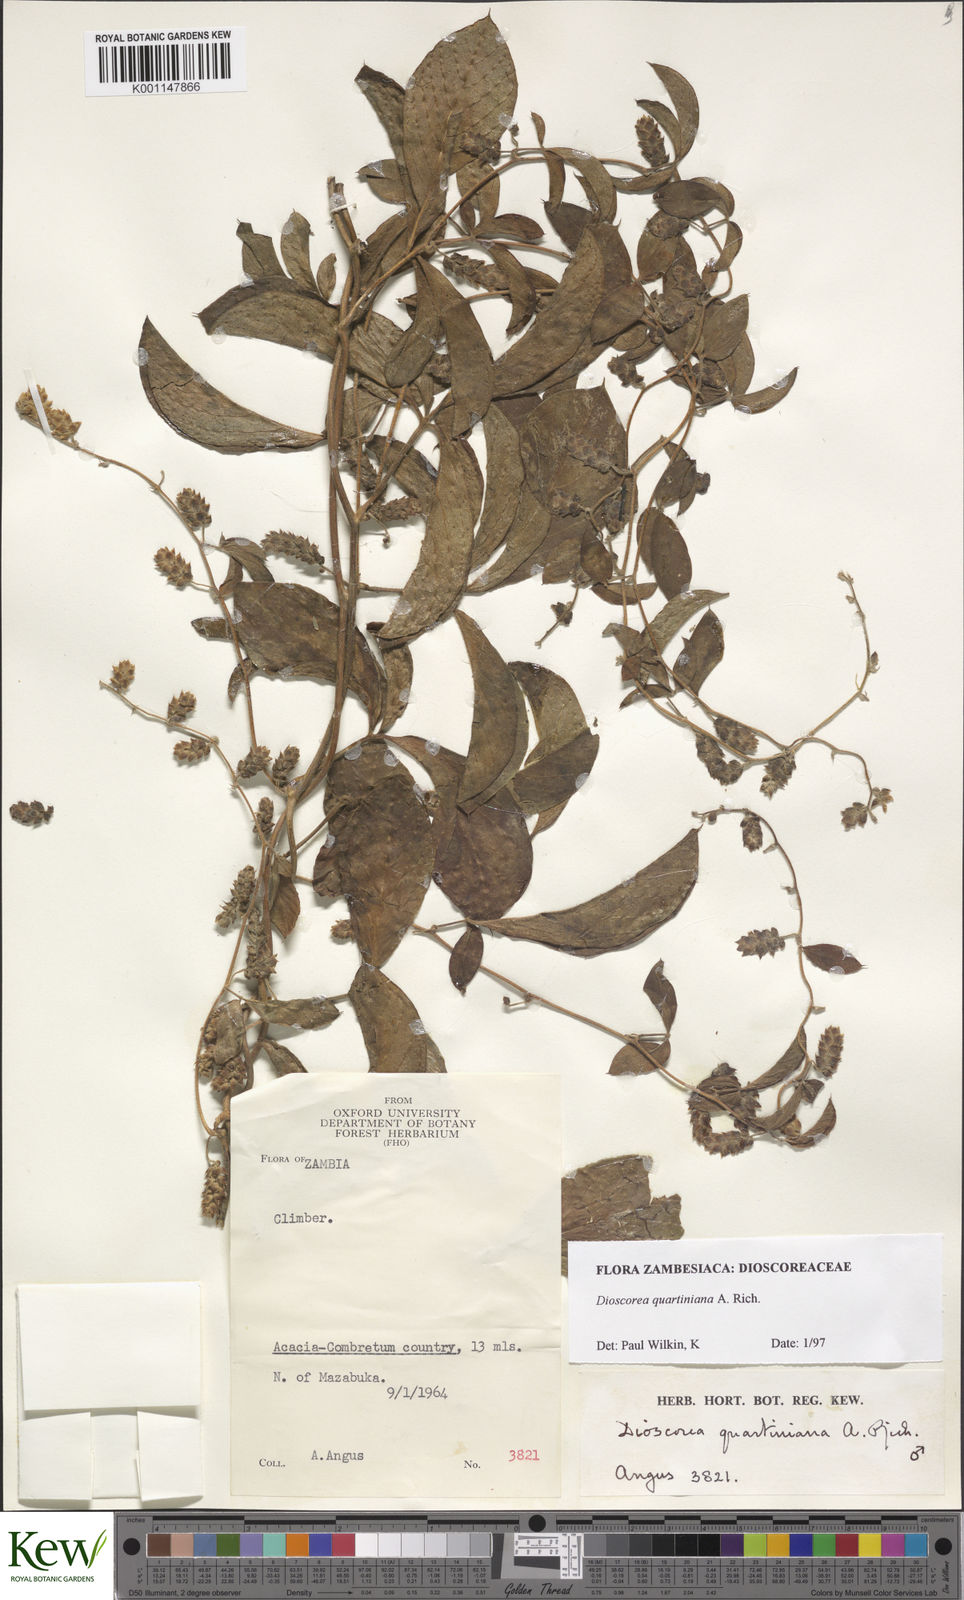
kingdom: Plantae
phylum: Tracheophyta
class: Liliopsida
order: Dioscoreales
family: Dioscoreaceae
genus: Dioscorea
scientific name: Dioscorea quartiniana
